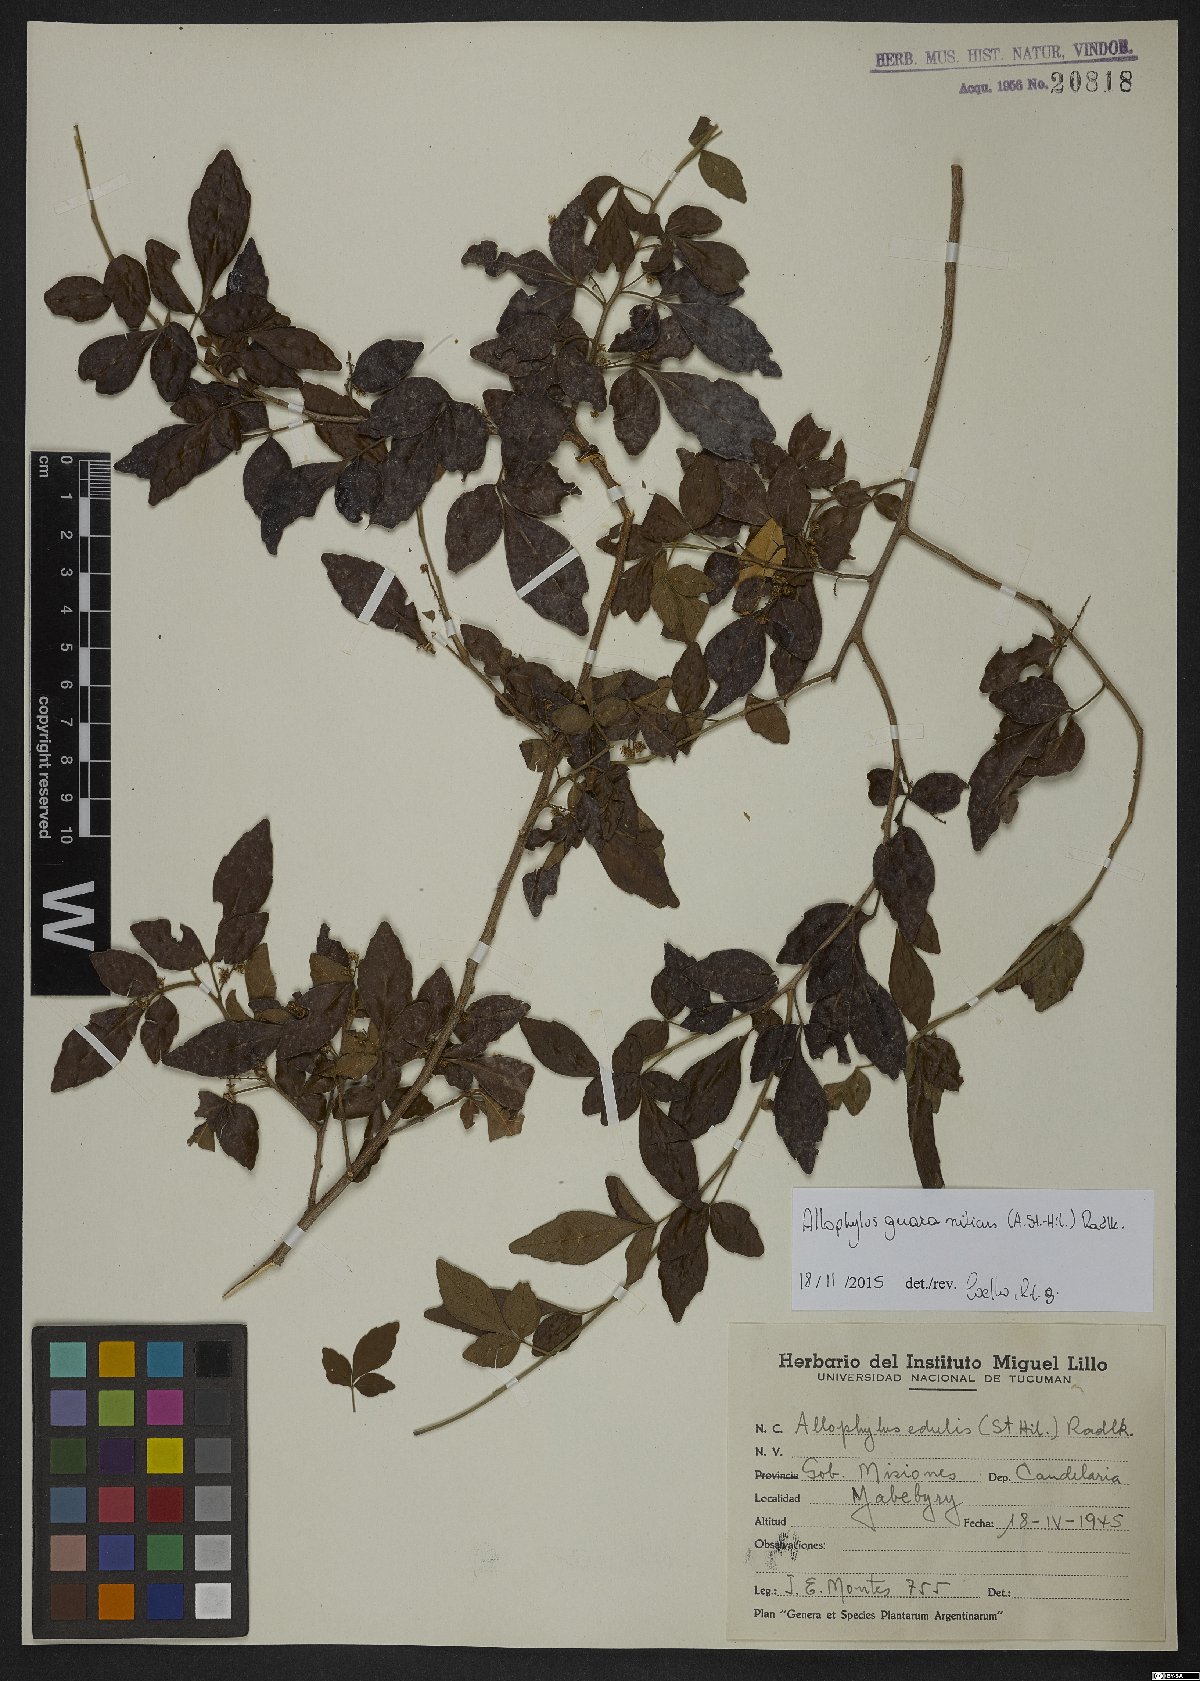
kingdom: Plantae
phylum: Tracheophyta
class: Magnoliopsida
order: Sapindales
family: Sapindaceae
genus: Allophylus
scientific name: Allophylus guaraniticus
